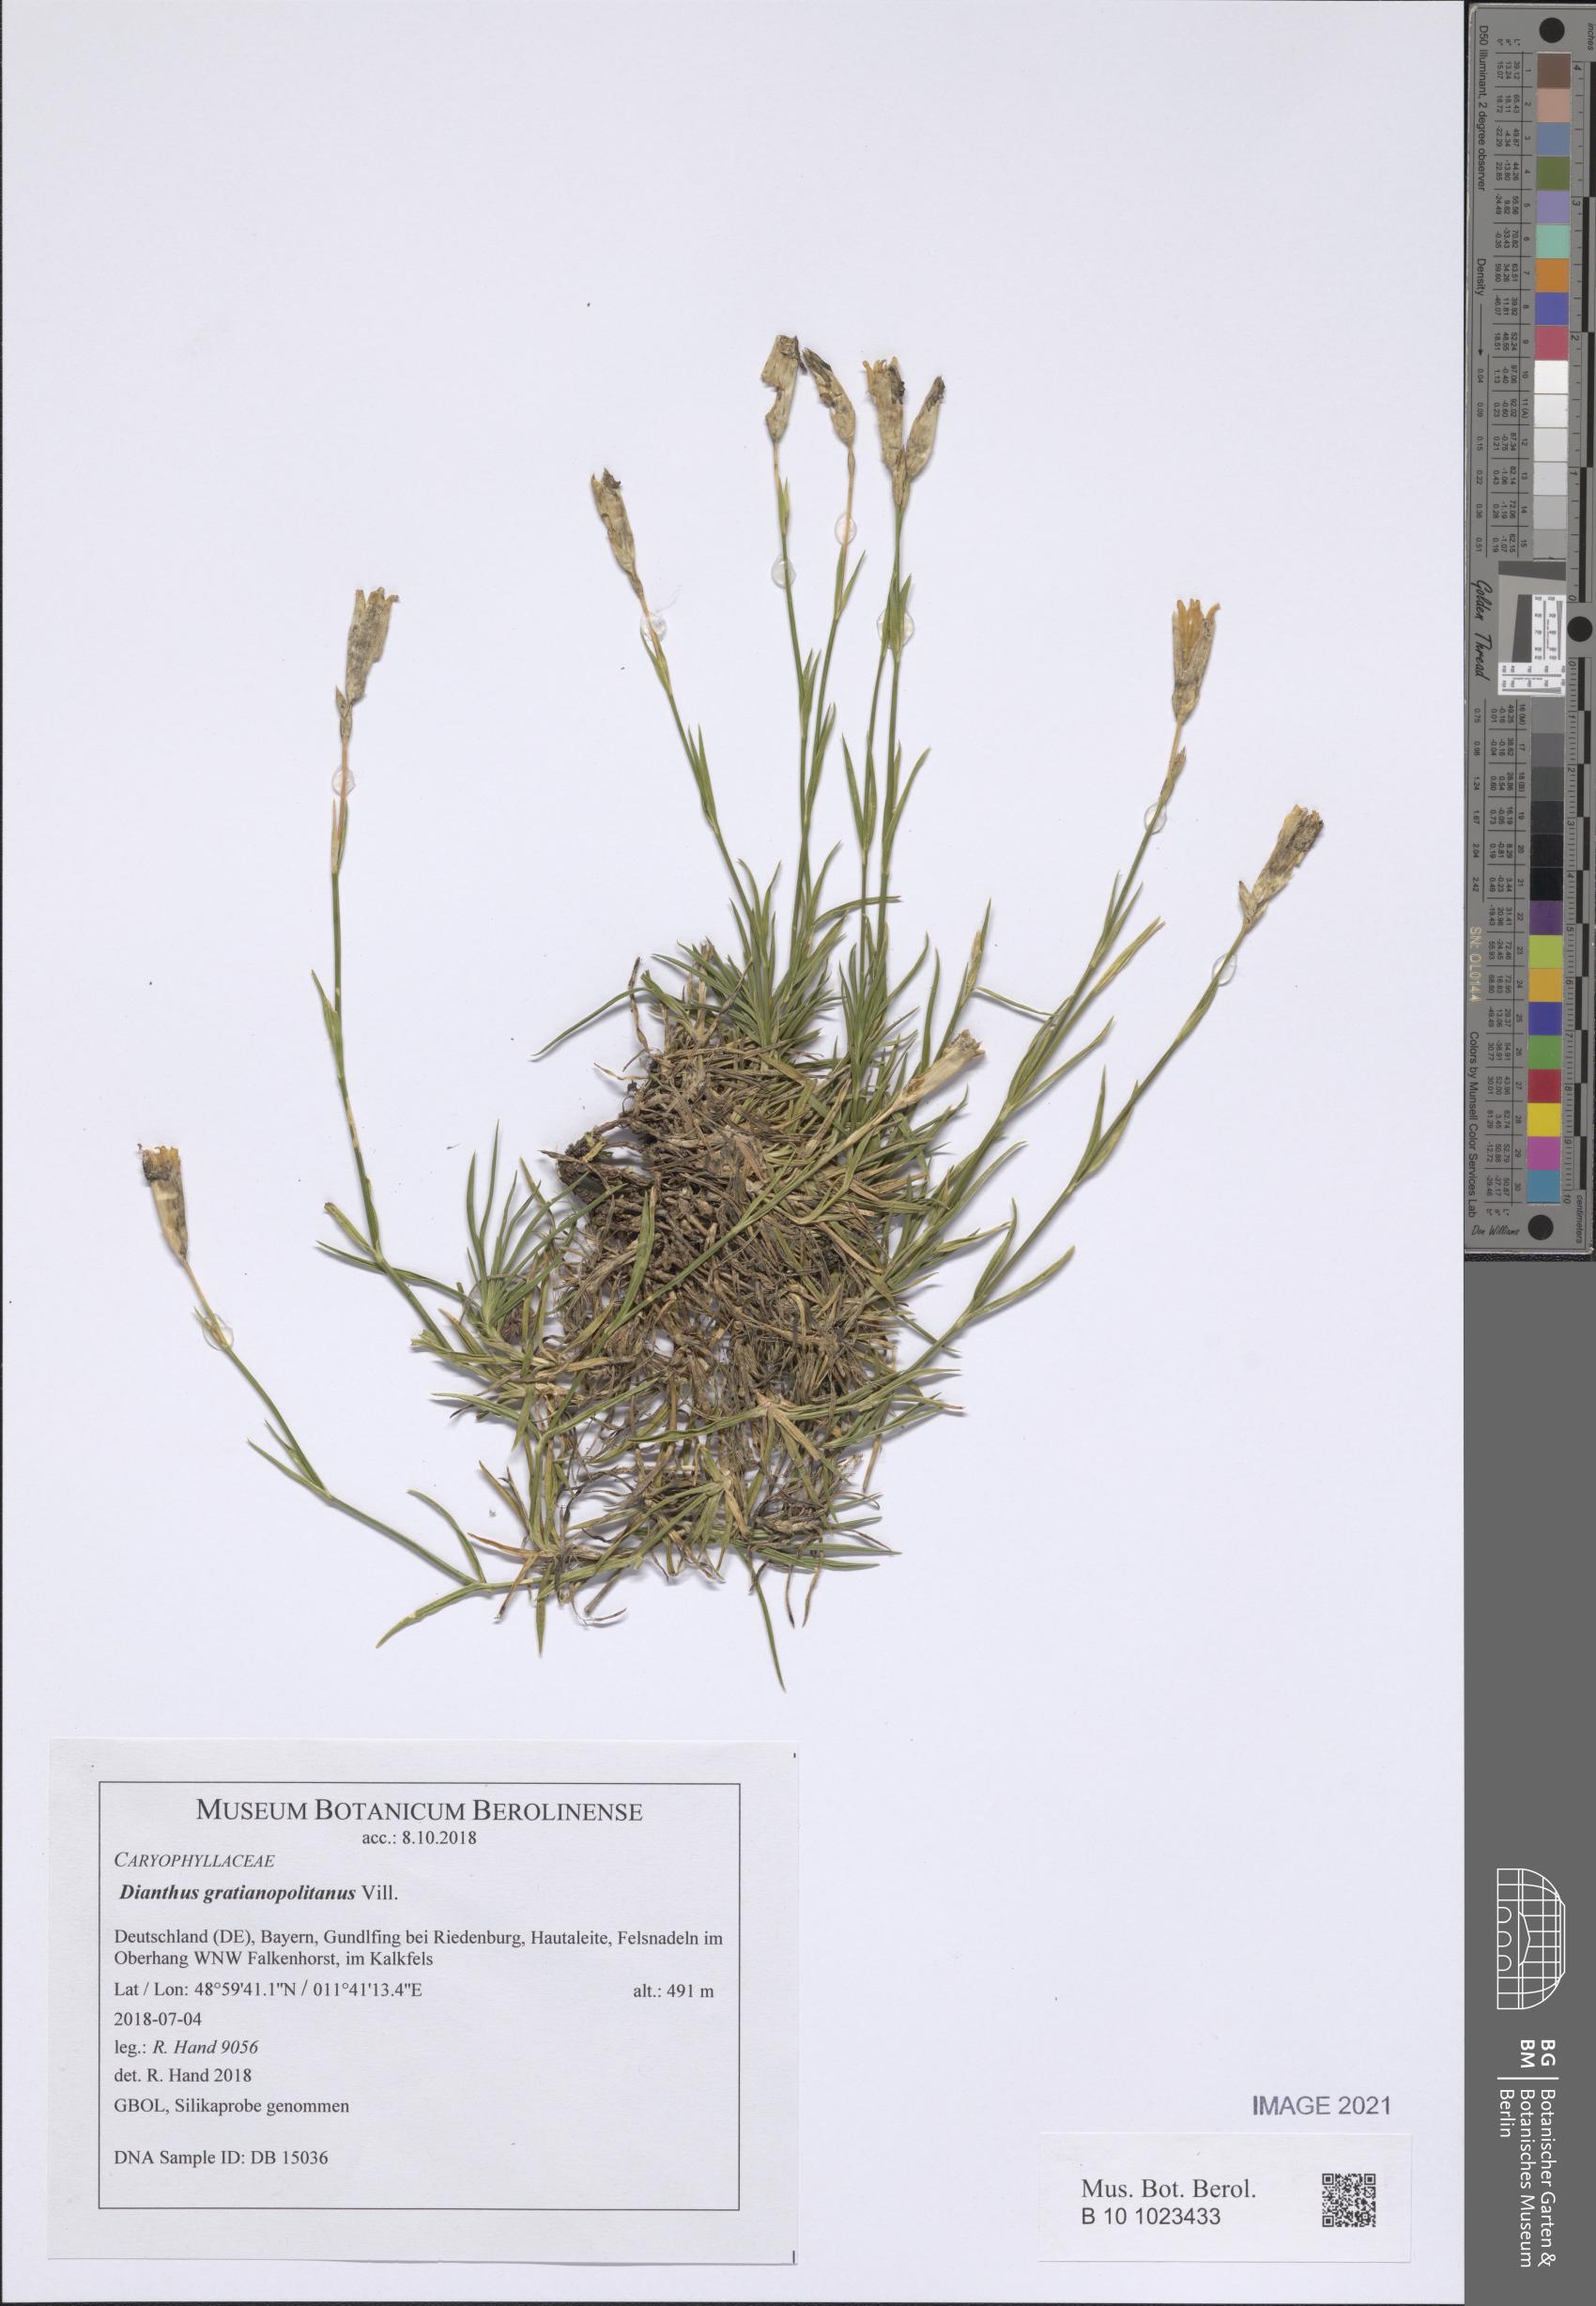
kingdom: Plantae
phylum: Tracheophyta
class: Magnoliopsida
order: Caryophyllales
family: Caryophyllaceae
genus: Dianthus
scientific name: Dianthus gratianopolitanus
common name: Cheddar pink
